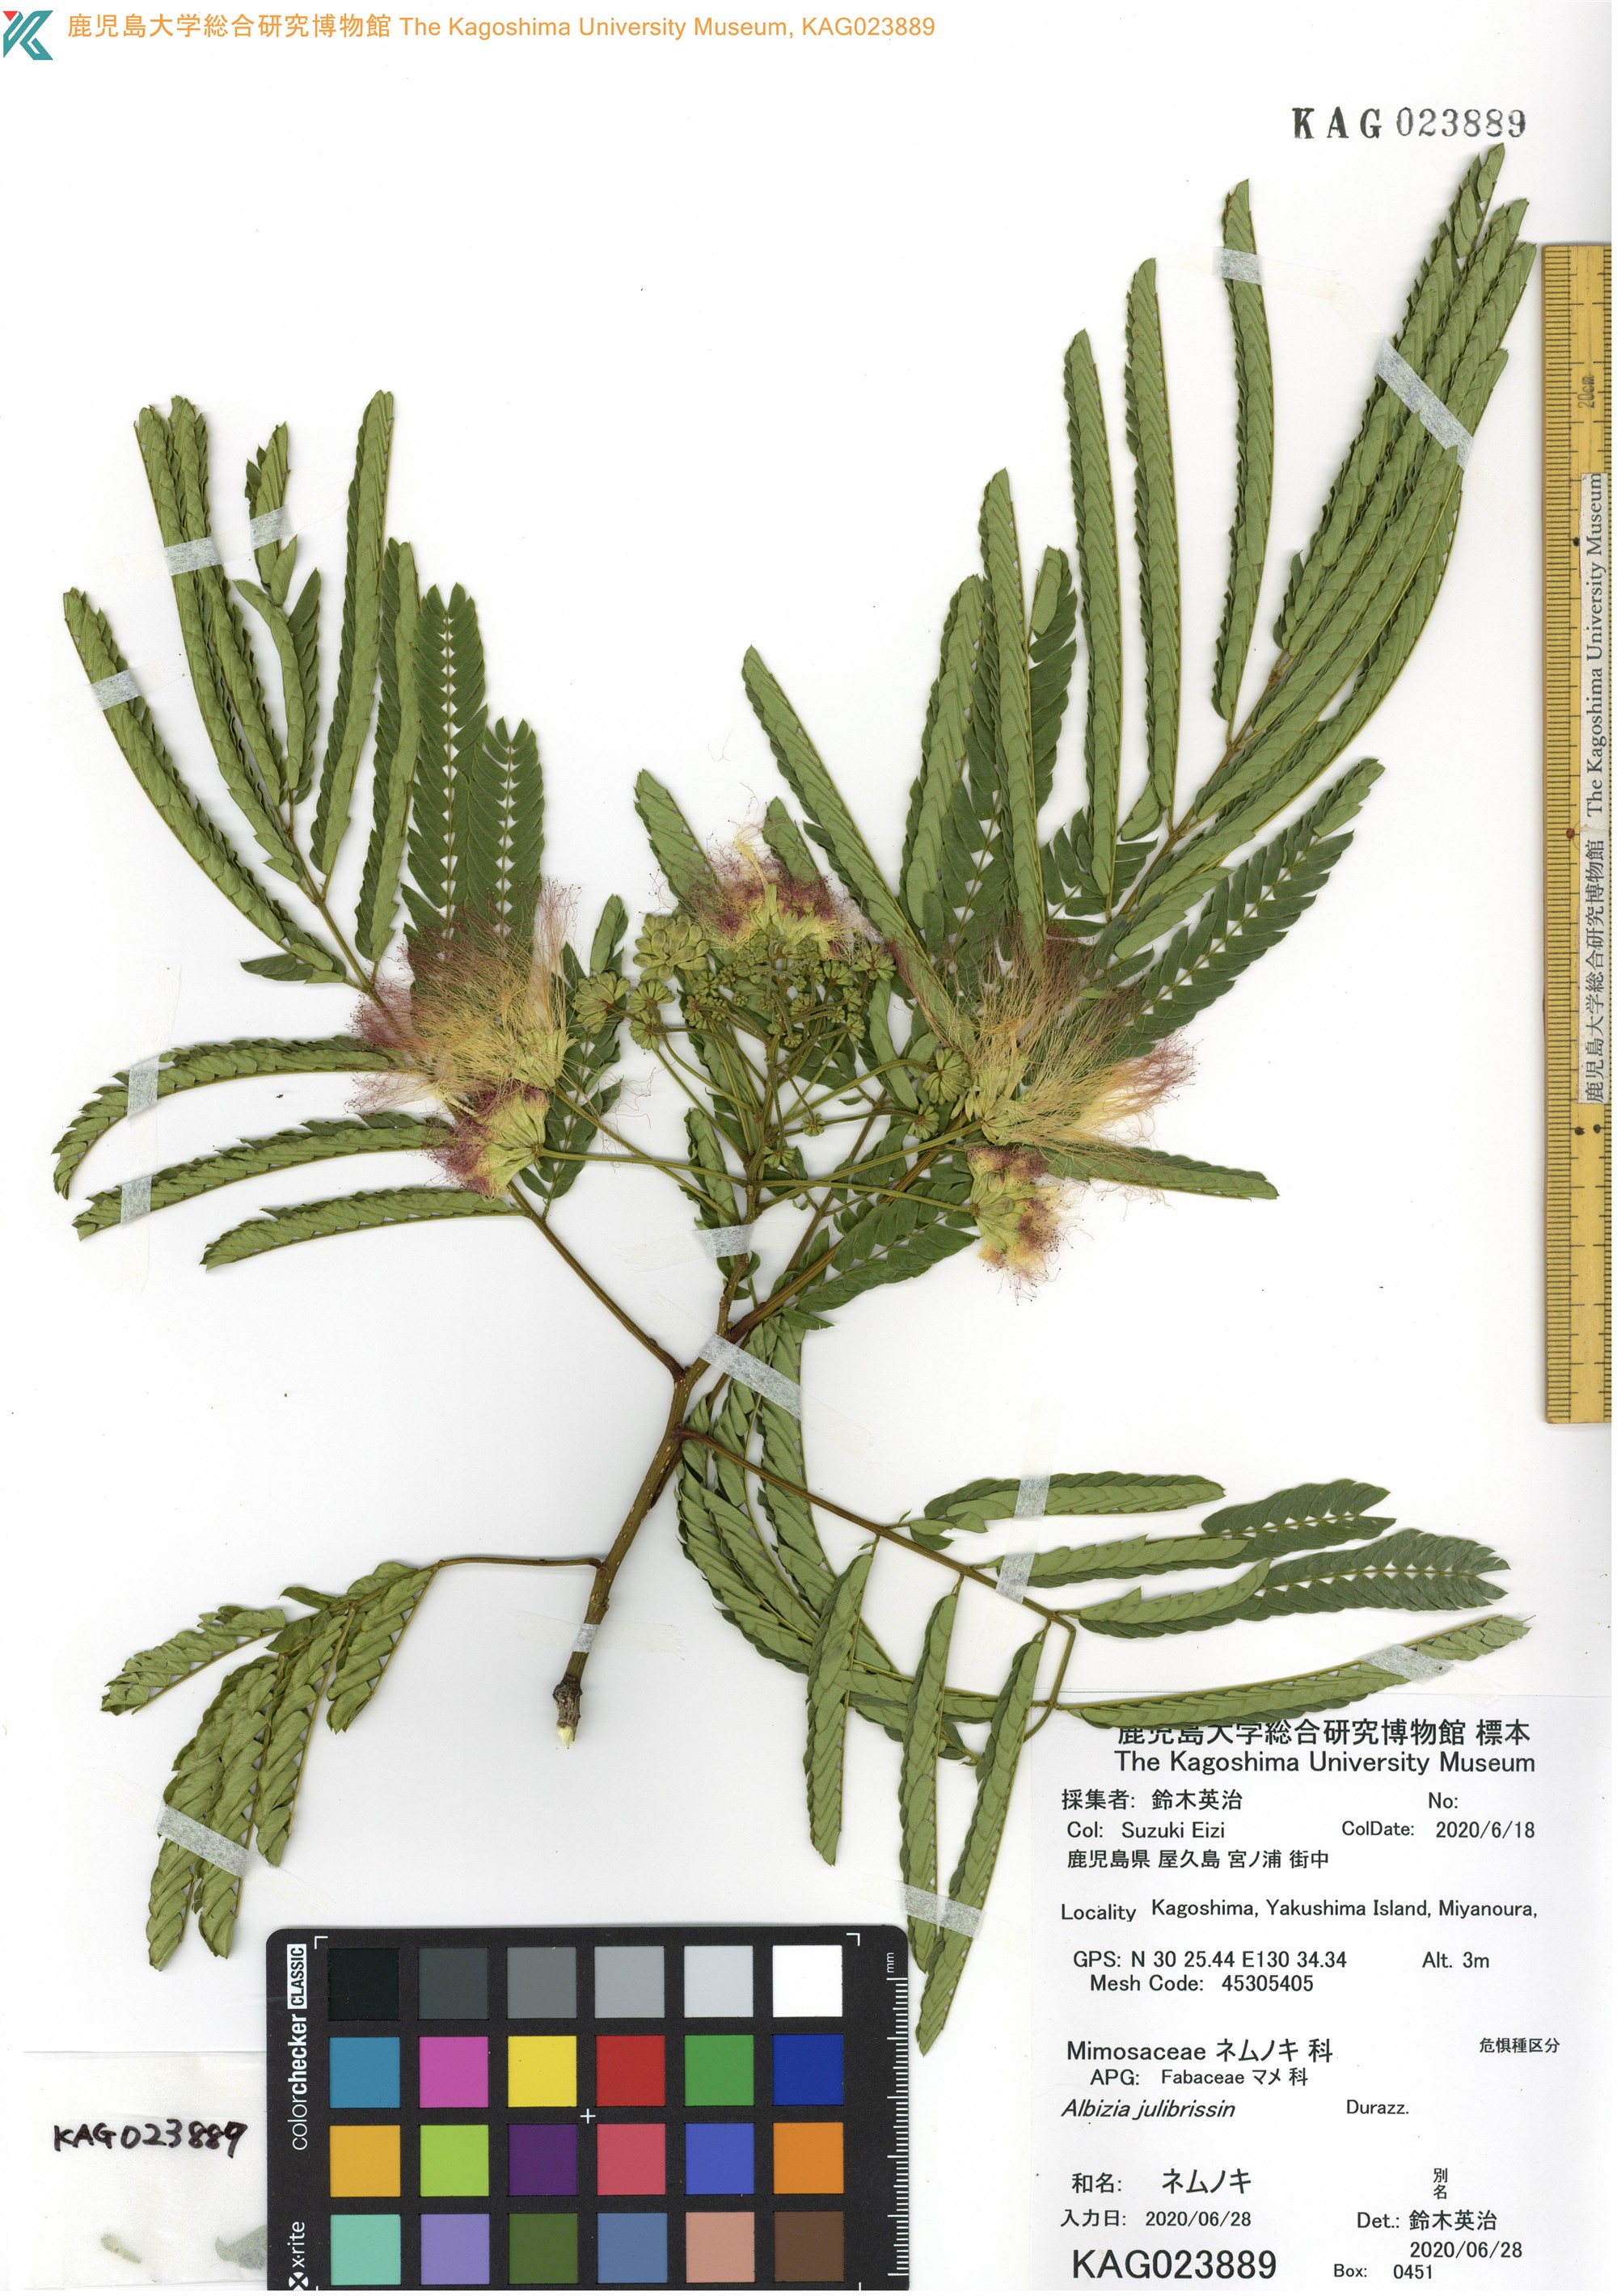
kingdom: Plantae
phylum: Tracheophyta
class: Magnoliopsida
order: Fabales
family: Fabaceae
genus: Albizia
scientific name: Albizia julibrissin
